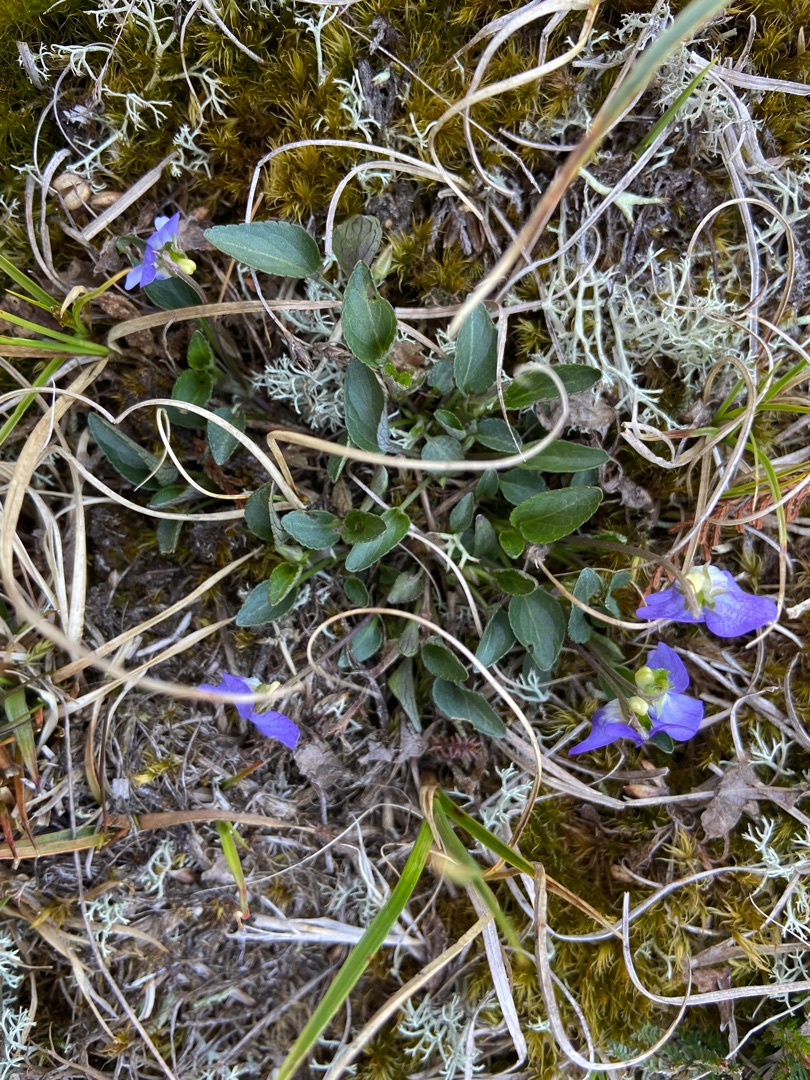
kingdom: Plantae
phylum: Tracheophyta
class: Magnoliopsida
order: Malpighiales
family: Violaceae
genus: Viola
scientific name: Viola canina
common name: Hunde-viol
